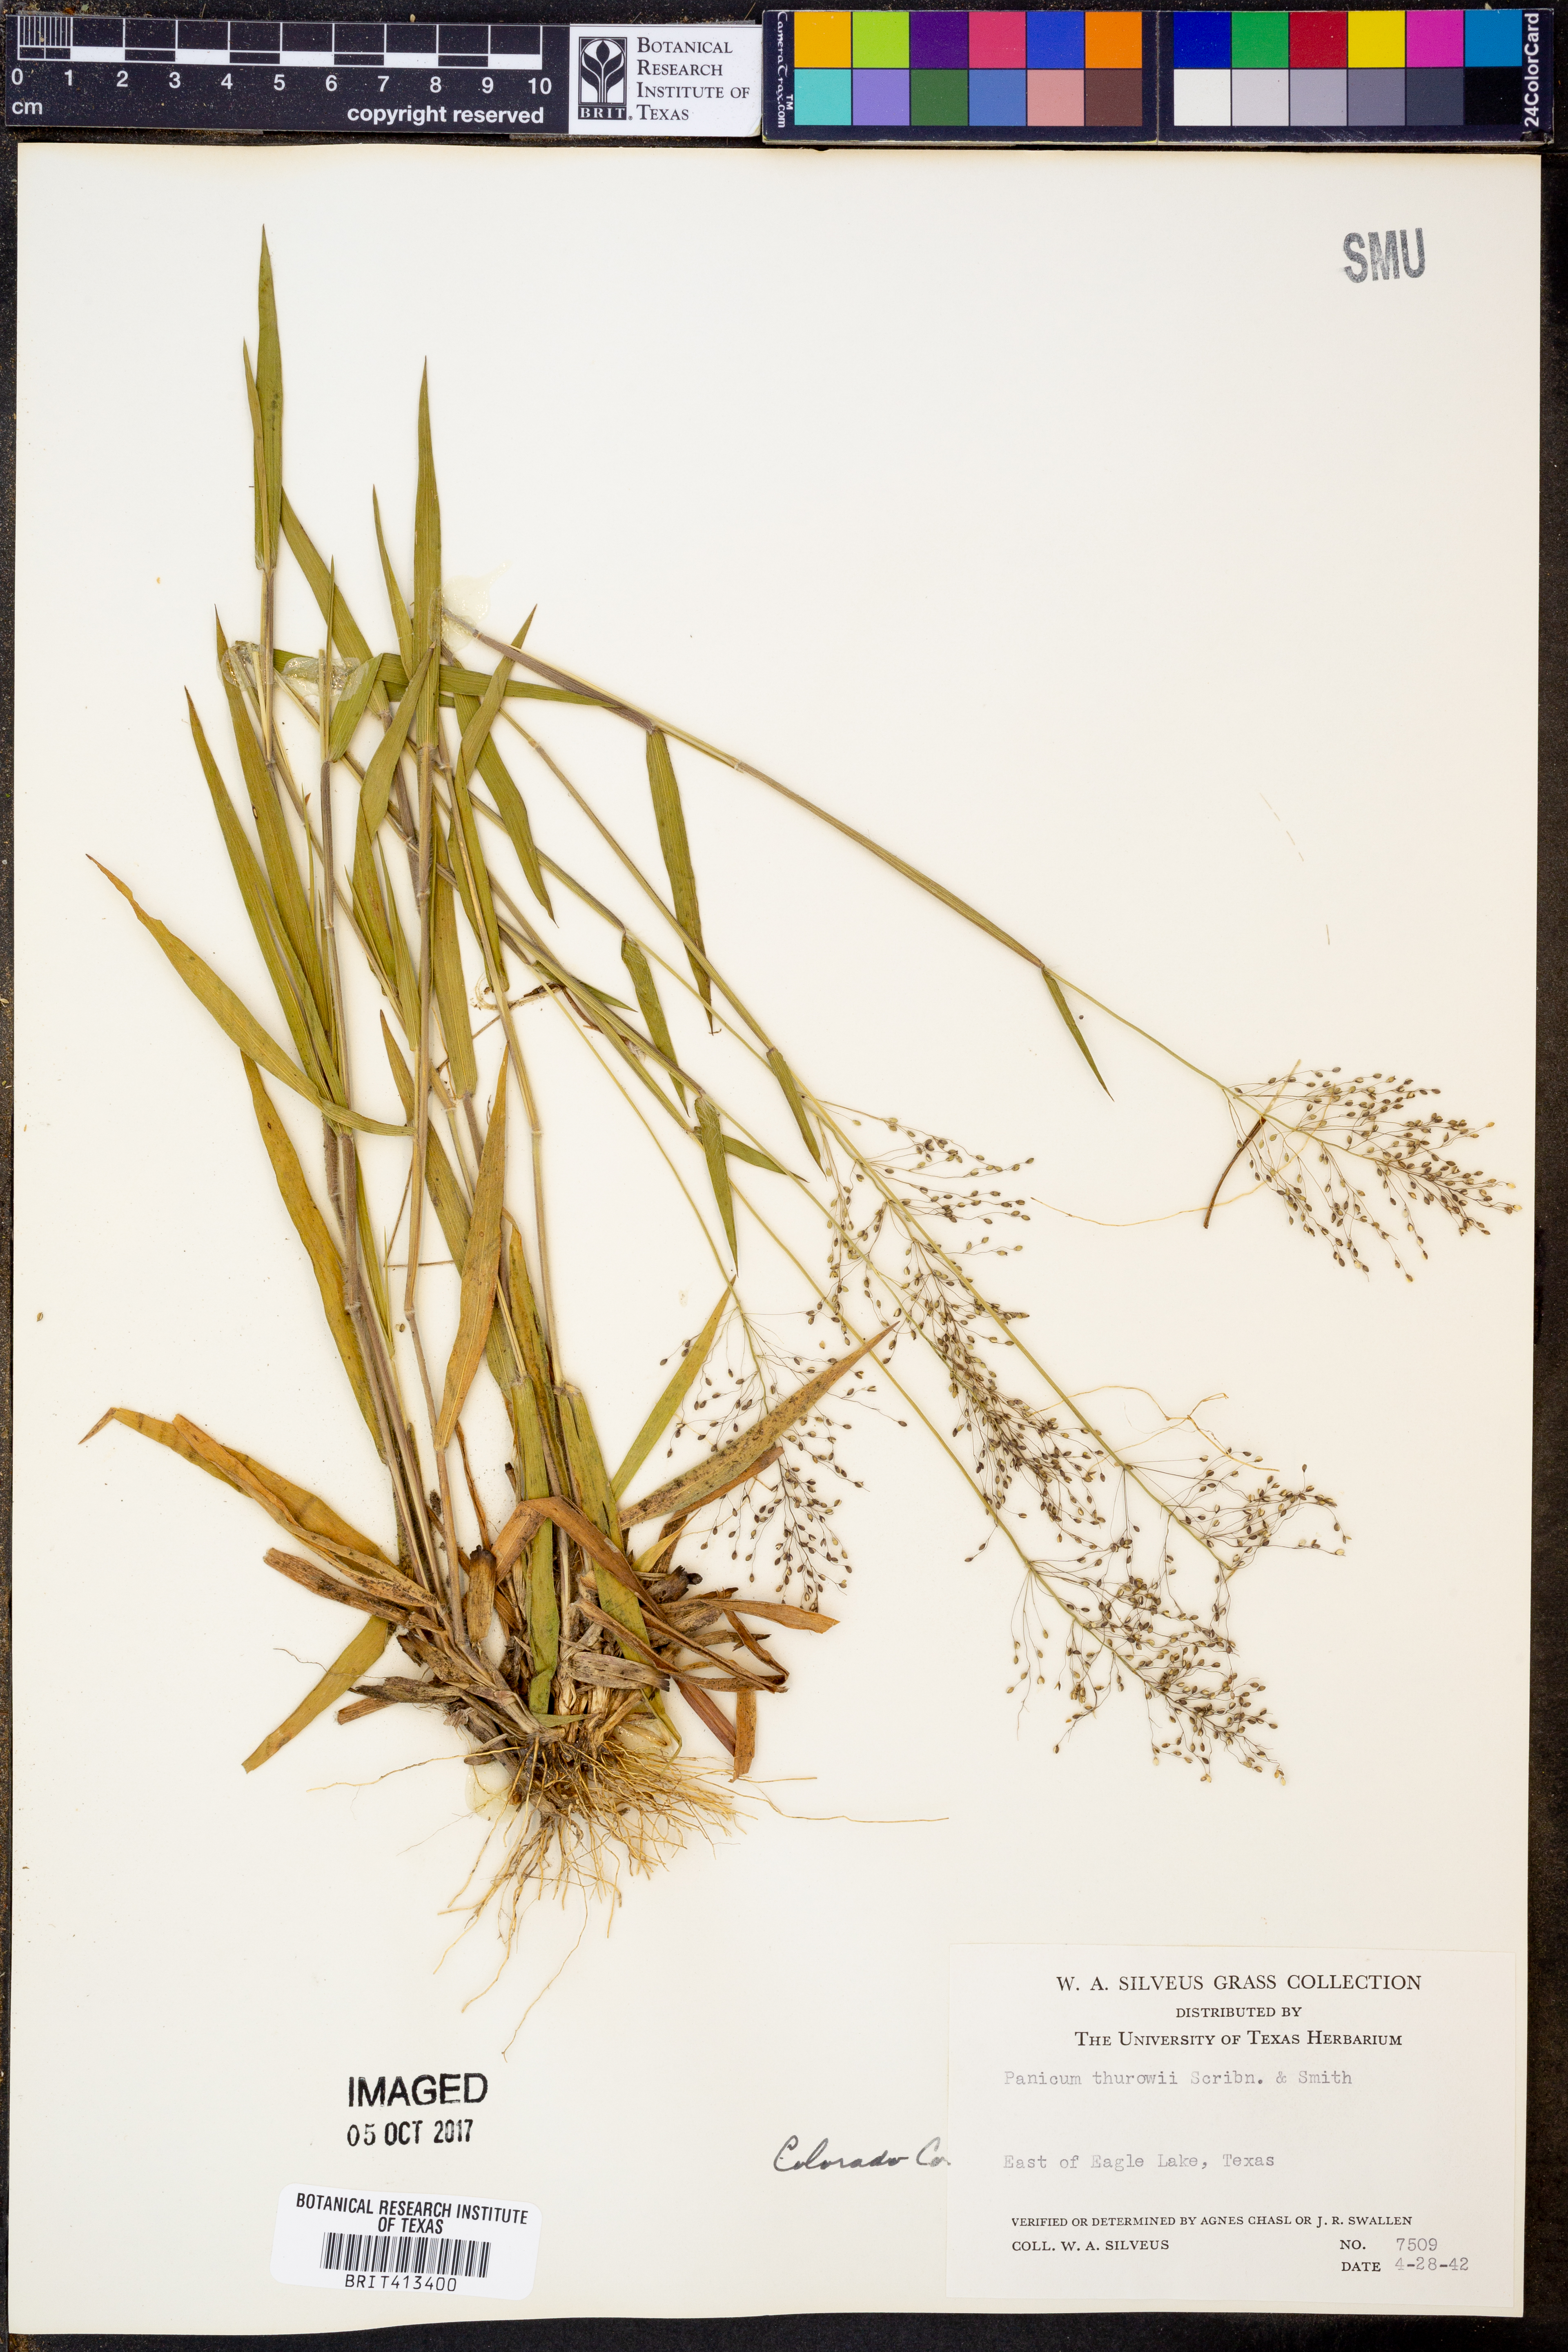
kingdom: Plantae
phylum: Tracheophyta
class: Liliopsida
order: Poales
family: Poaceae
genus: Dichanthelium
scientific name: Dichanthelium acuminatum
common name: Hairy panic grass
